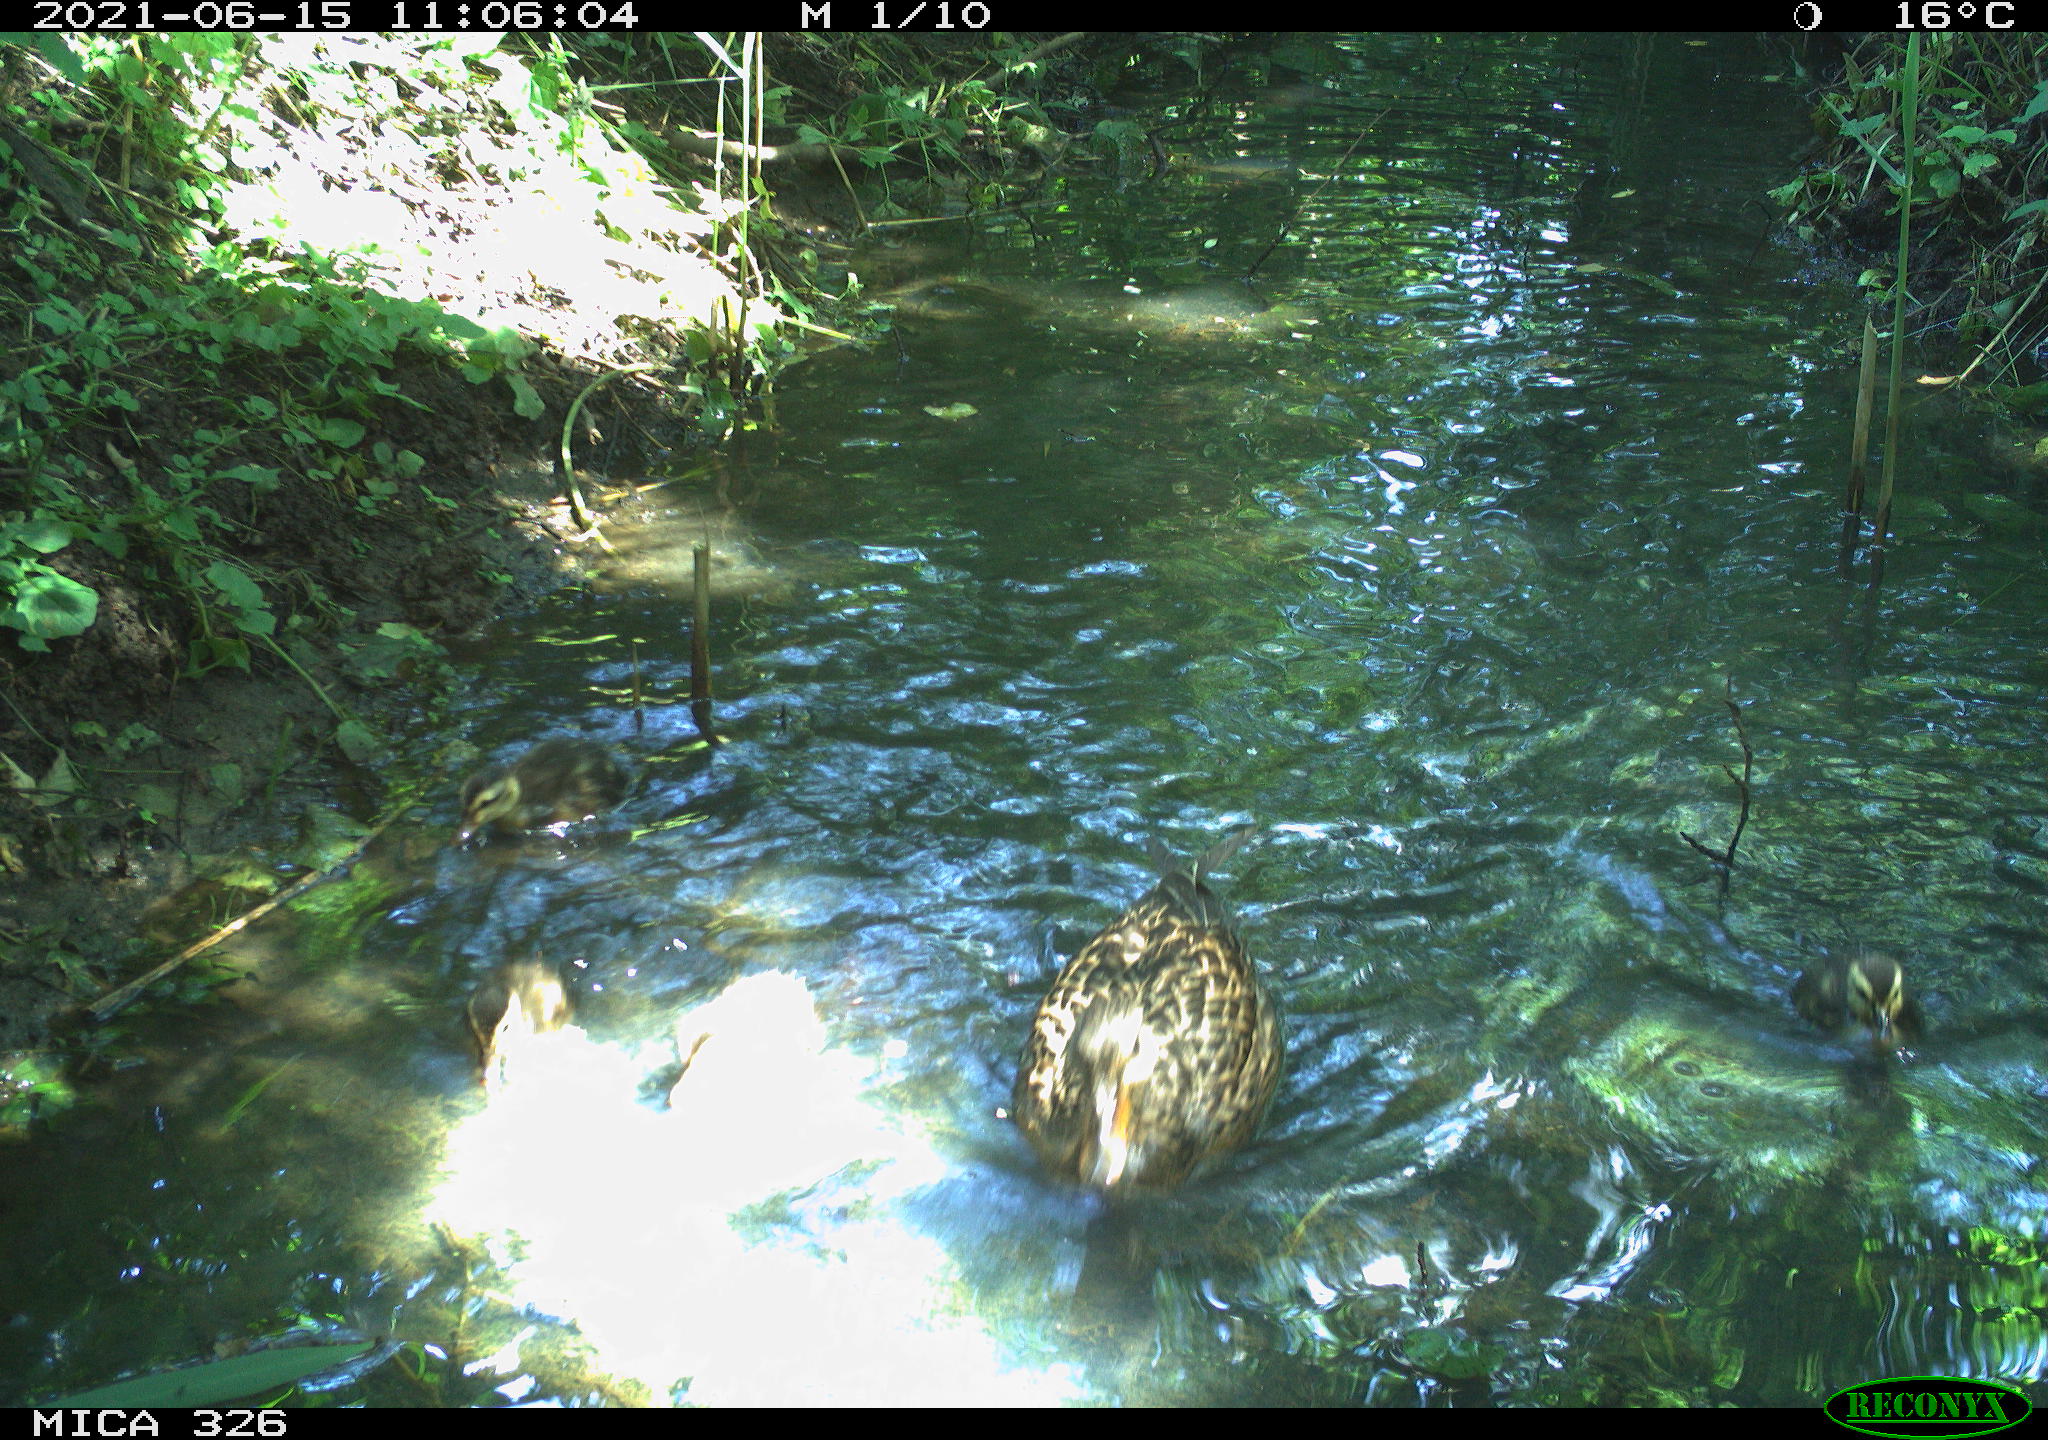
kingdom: Animalia
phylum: Chordata
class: Aves
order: Anseriformes
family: Anatidae
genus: Anas
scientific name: Anas platyrhynchos
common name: Mallard
